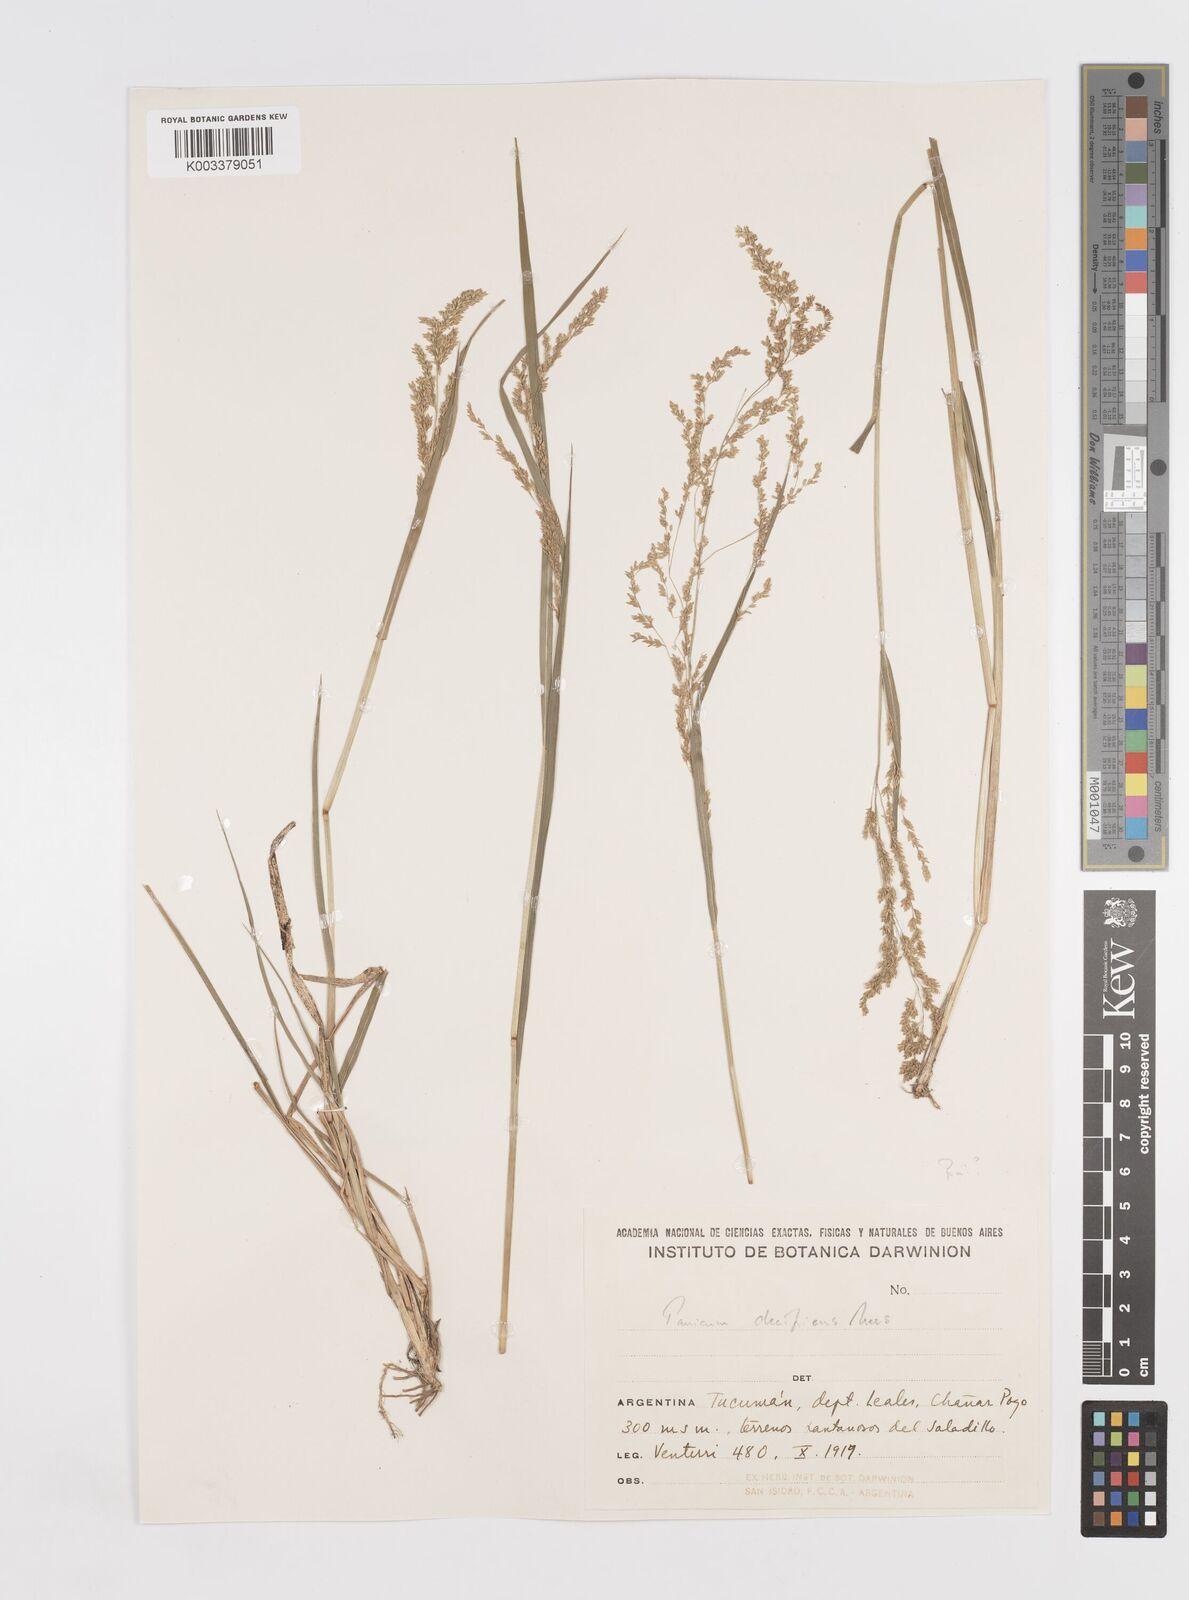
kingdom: Plantae
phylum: Tracheophyta
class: Liliopsida
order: Poales
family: Poaceae
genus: Steinchisma
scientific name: Steinchisma hians
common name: Gaping panic grass
